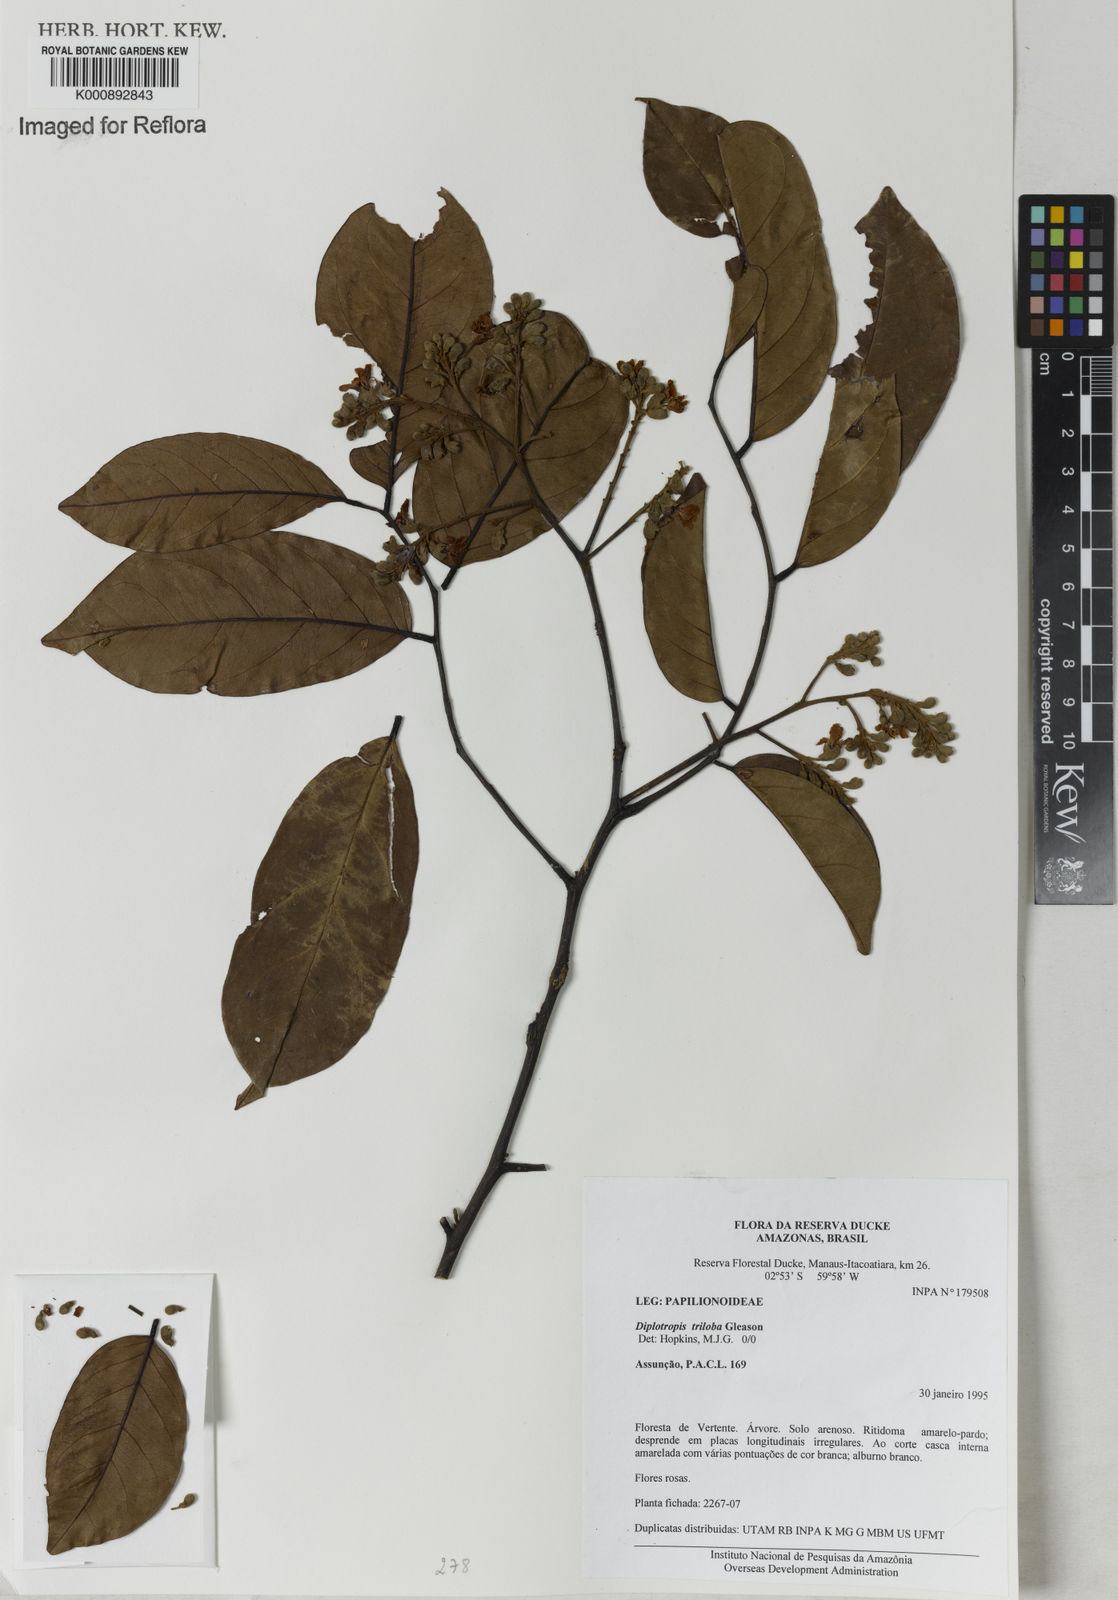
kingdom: Plantae
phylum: Tracheophyta
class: Magnoliopsida
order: Fabales
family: Fabaceae
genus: Diplotropis
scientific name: Diplotropis triloba
